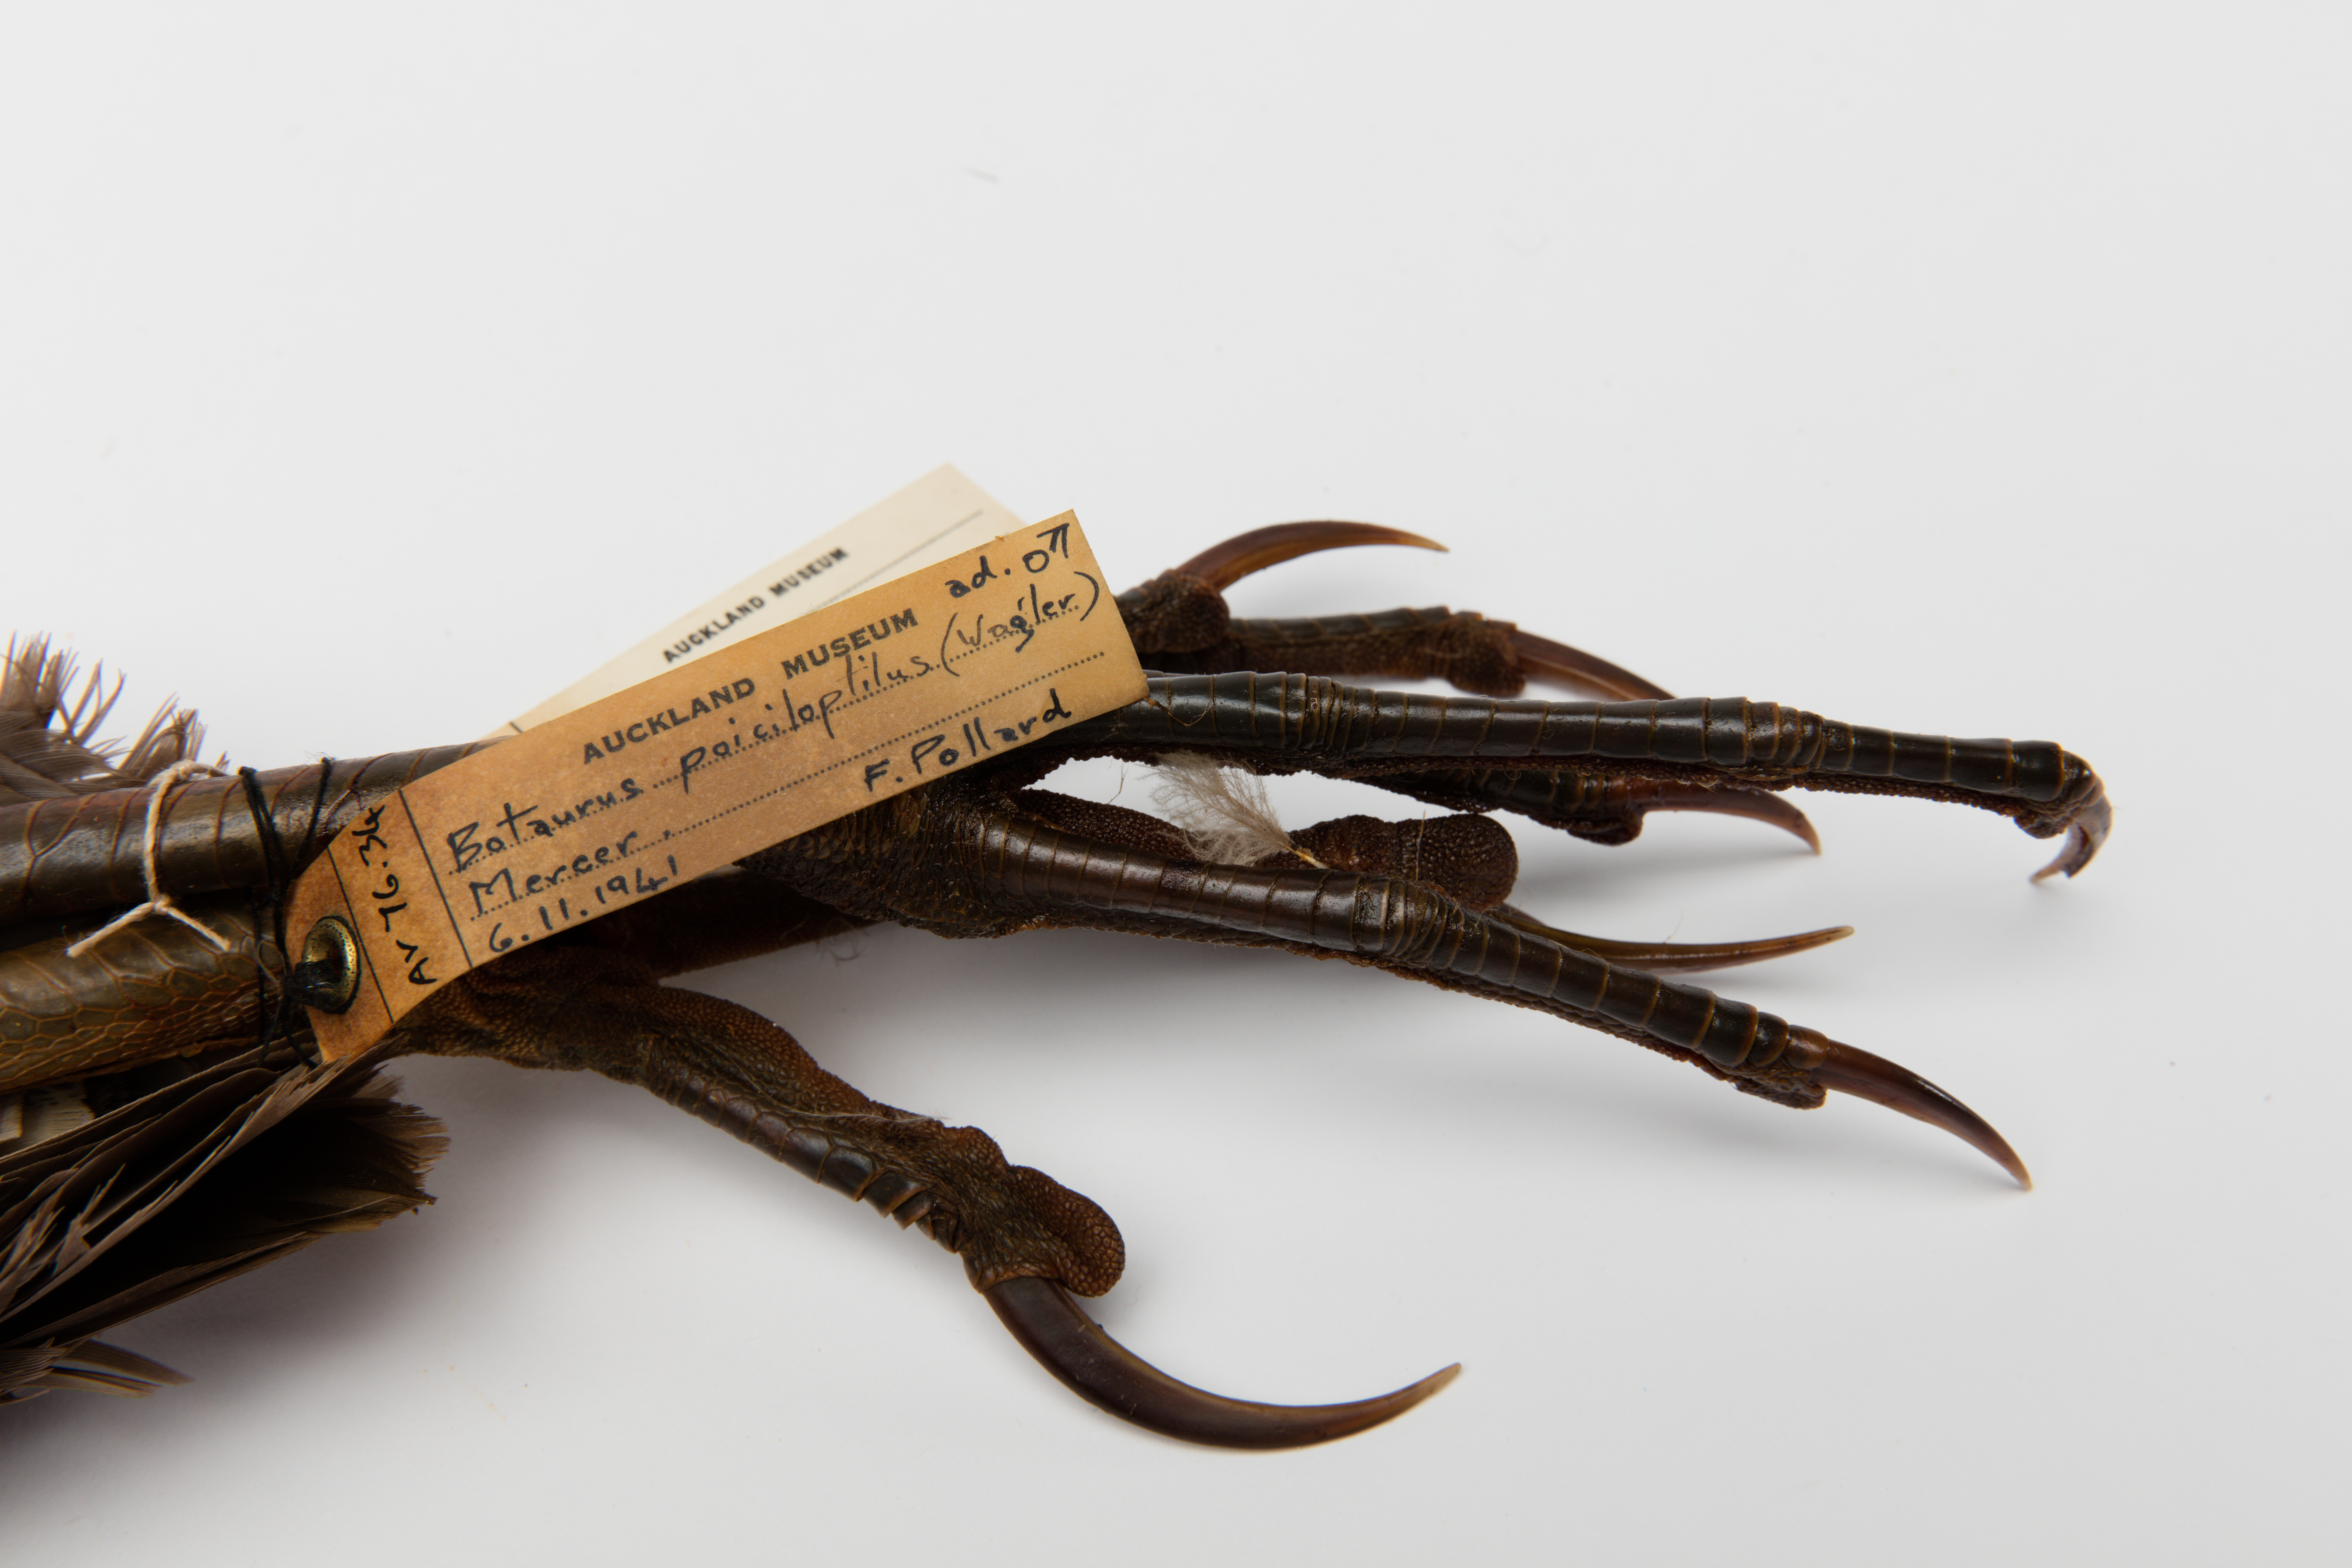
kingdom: Animalia
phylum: Chordata
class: Aves
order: Pelecaniformes
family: Ardeidae
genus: Botaurus
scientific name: Botaurus poiciloptilus
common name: Australasian bittern
